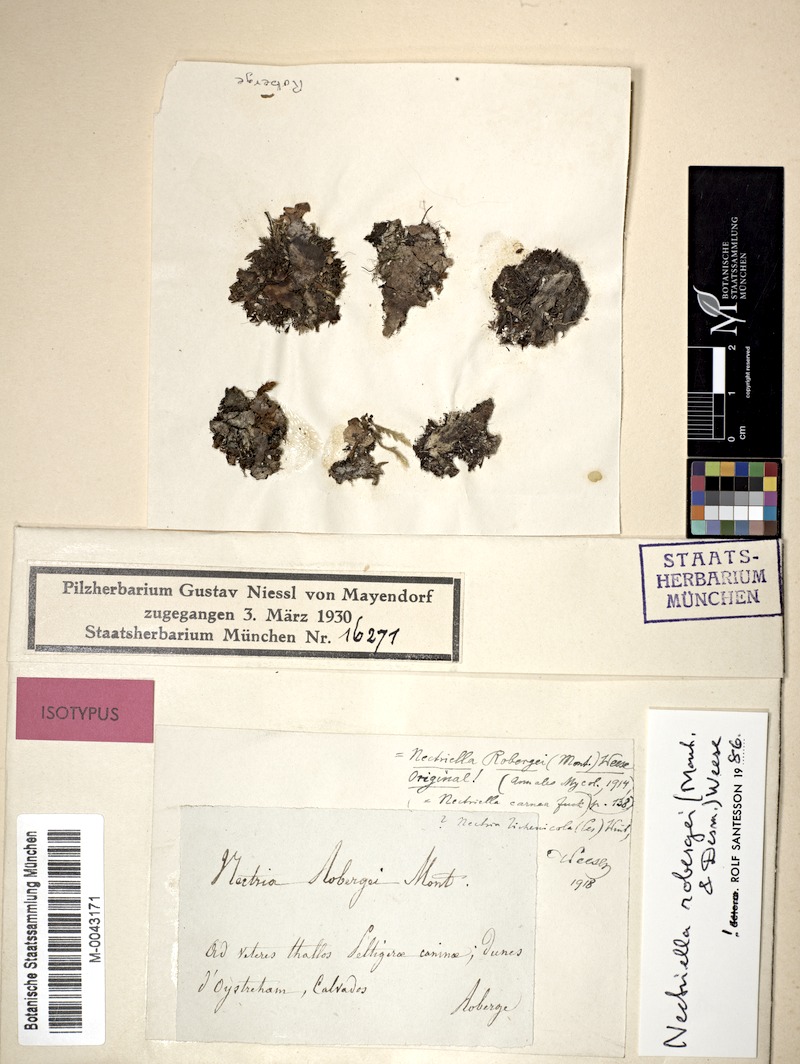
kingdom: Fungi
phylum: Ascomycota
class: Sordariomycetes
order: Hypocreales
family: Bionectriaceae
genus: Pronectria
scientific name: Pronectria robergei
